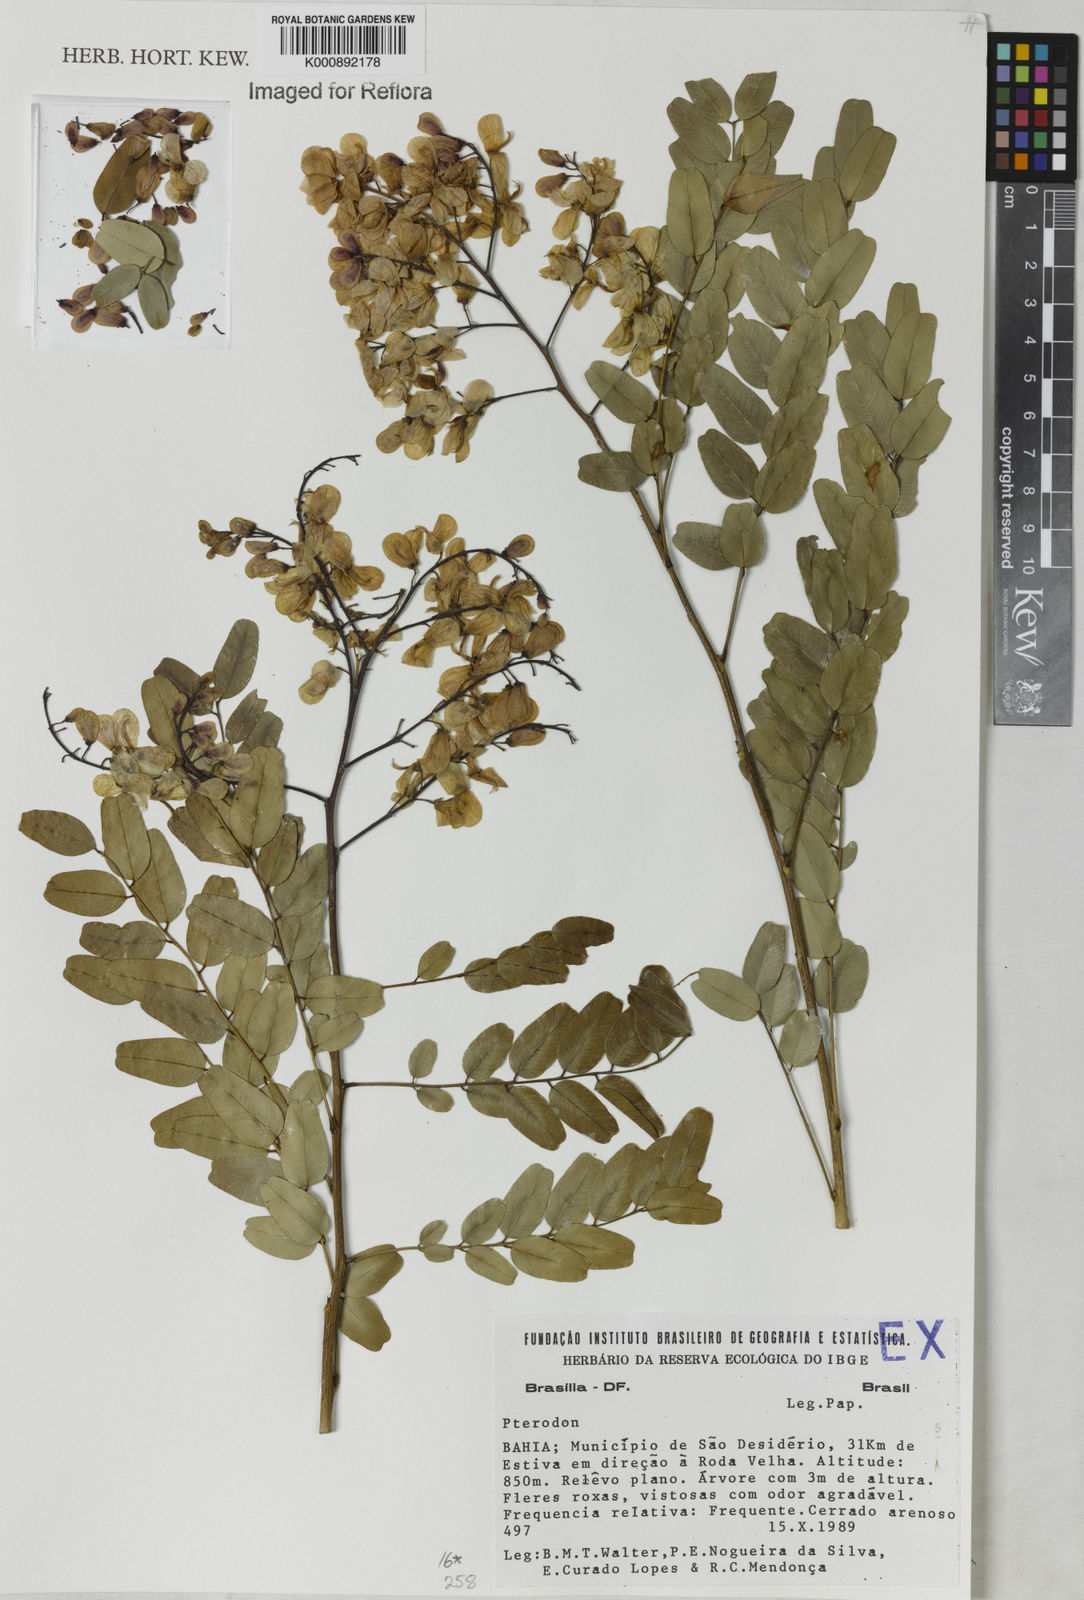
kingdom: Plantae
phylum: Tracheophyta
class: Magnoliopsida
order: Fabales
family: Fabaceae
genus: Pterodon
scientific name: Pterodon
